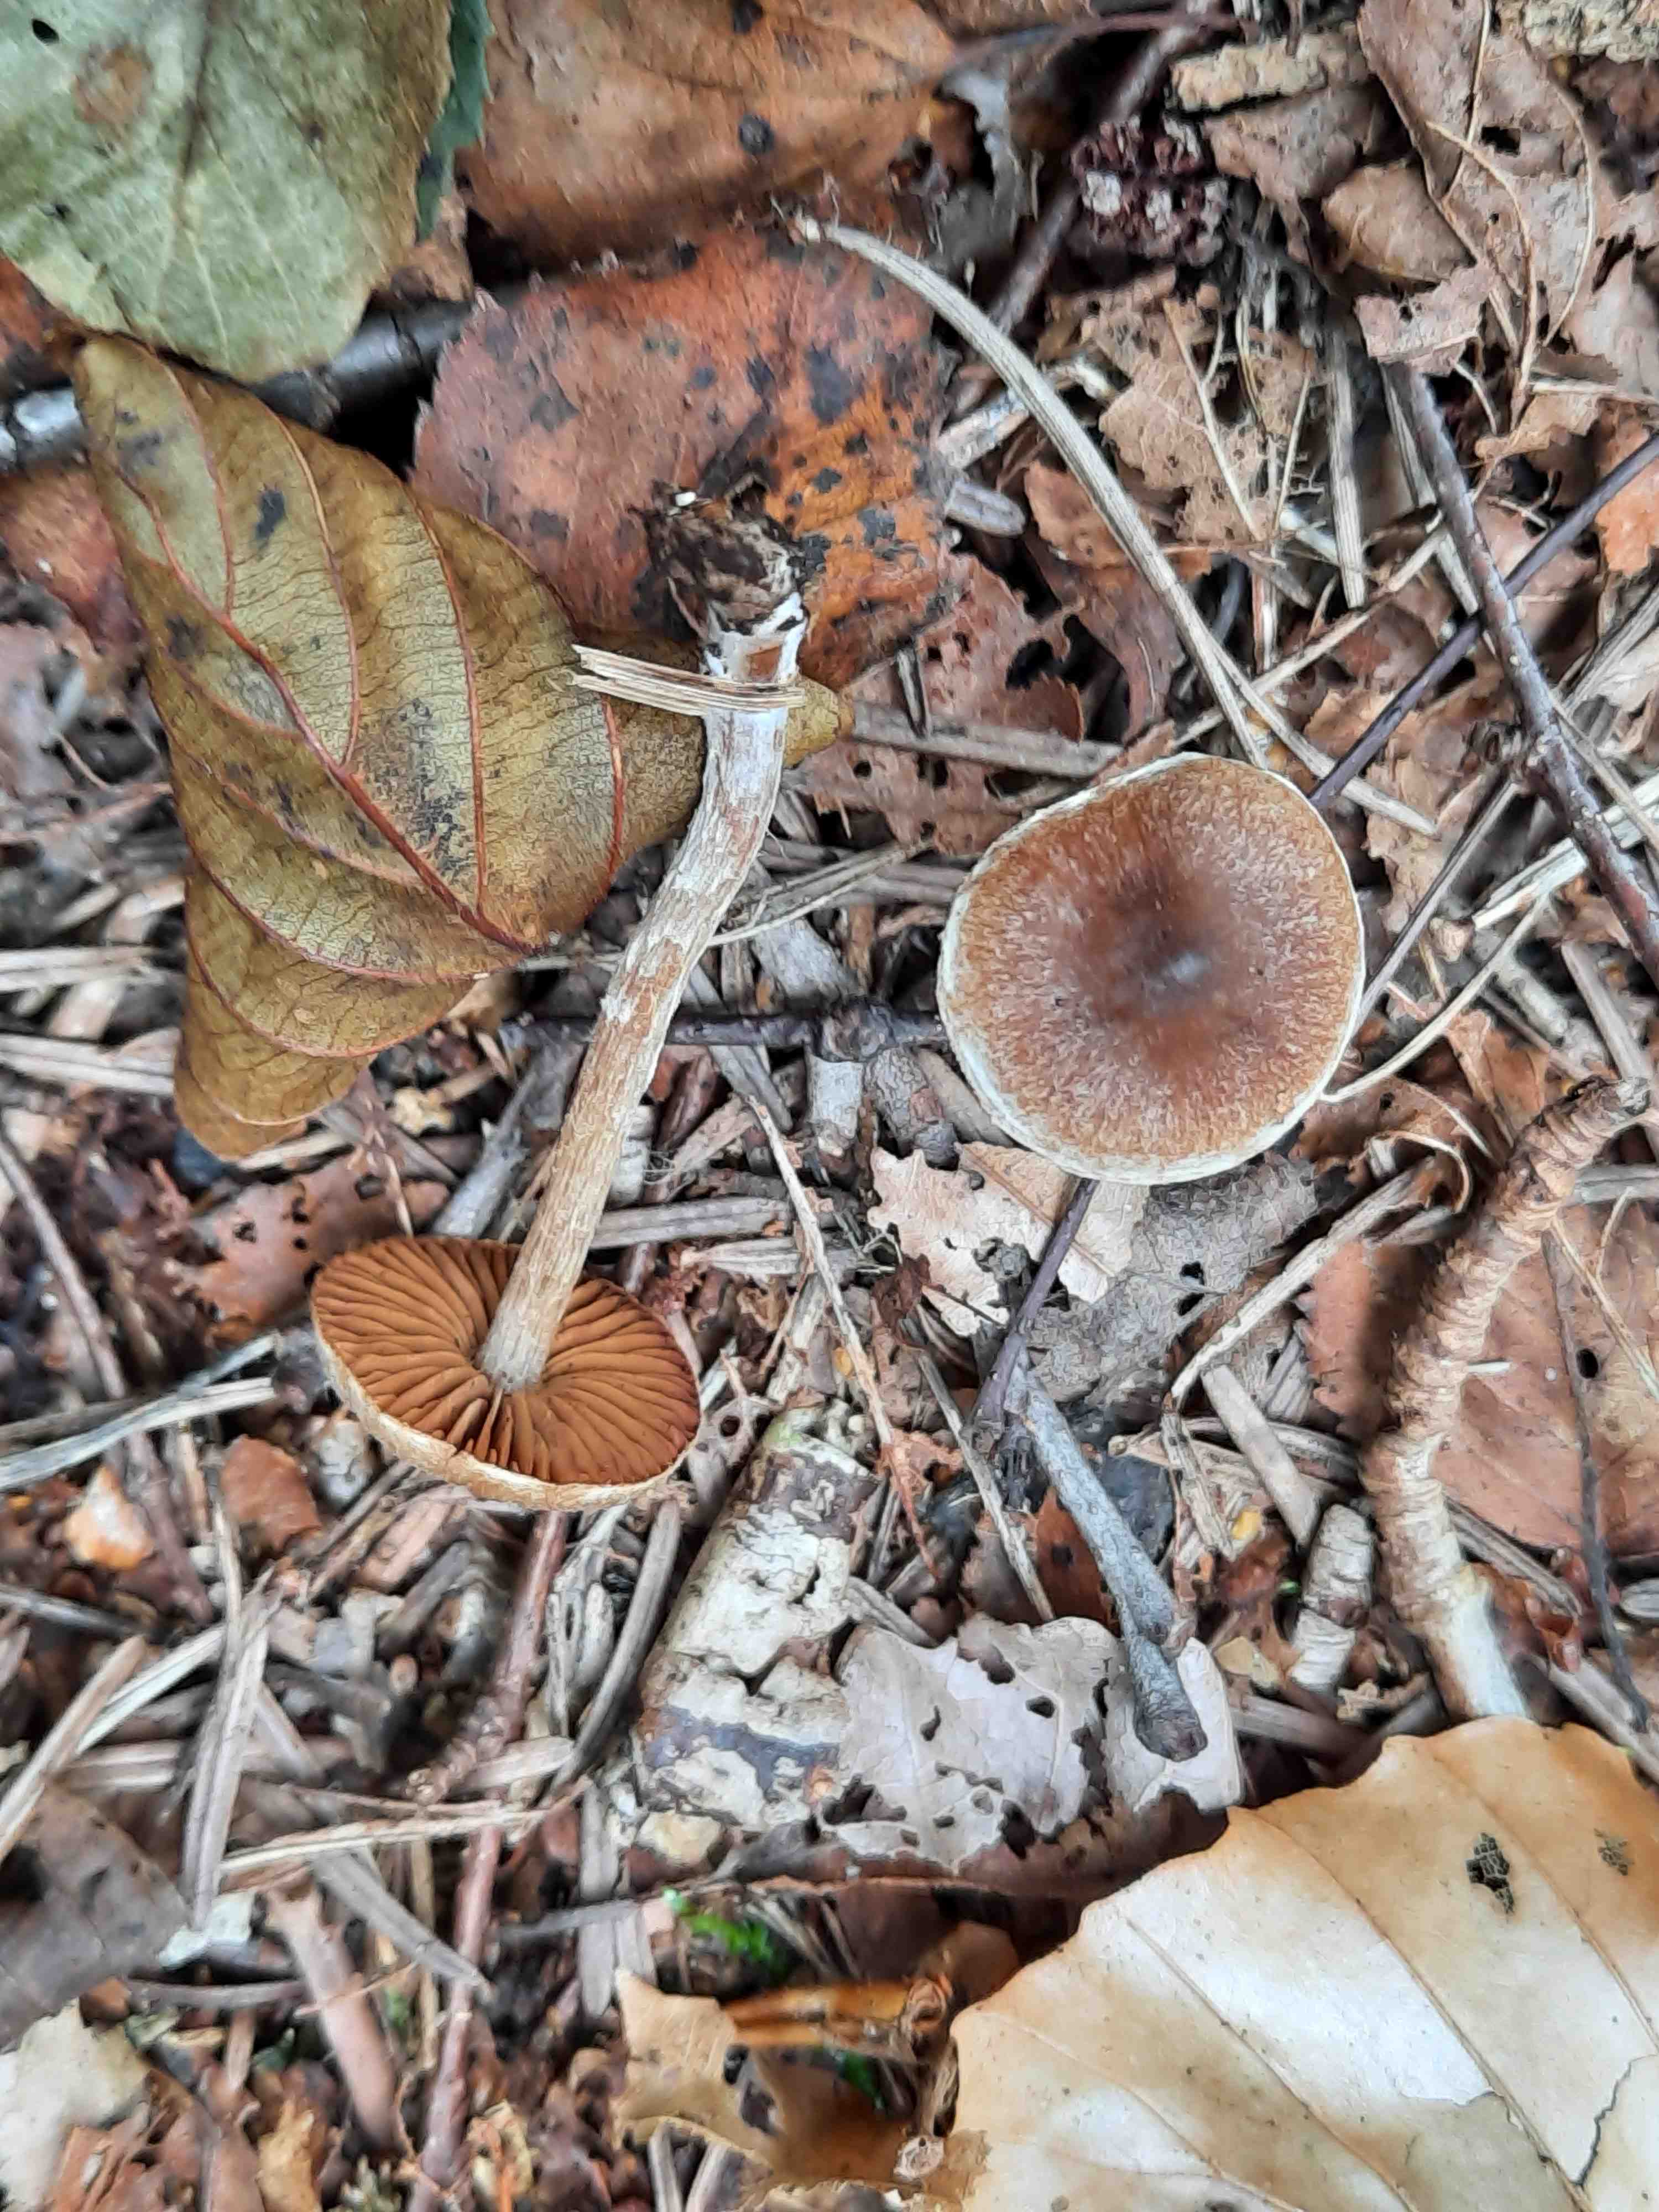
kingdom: Fungi
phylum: Basidiomycota
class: Agaricomycetes
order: Agaricales
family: Cortinariaceae
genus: Cortinarius
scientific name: Cortinarius
